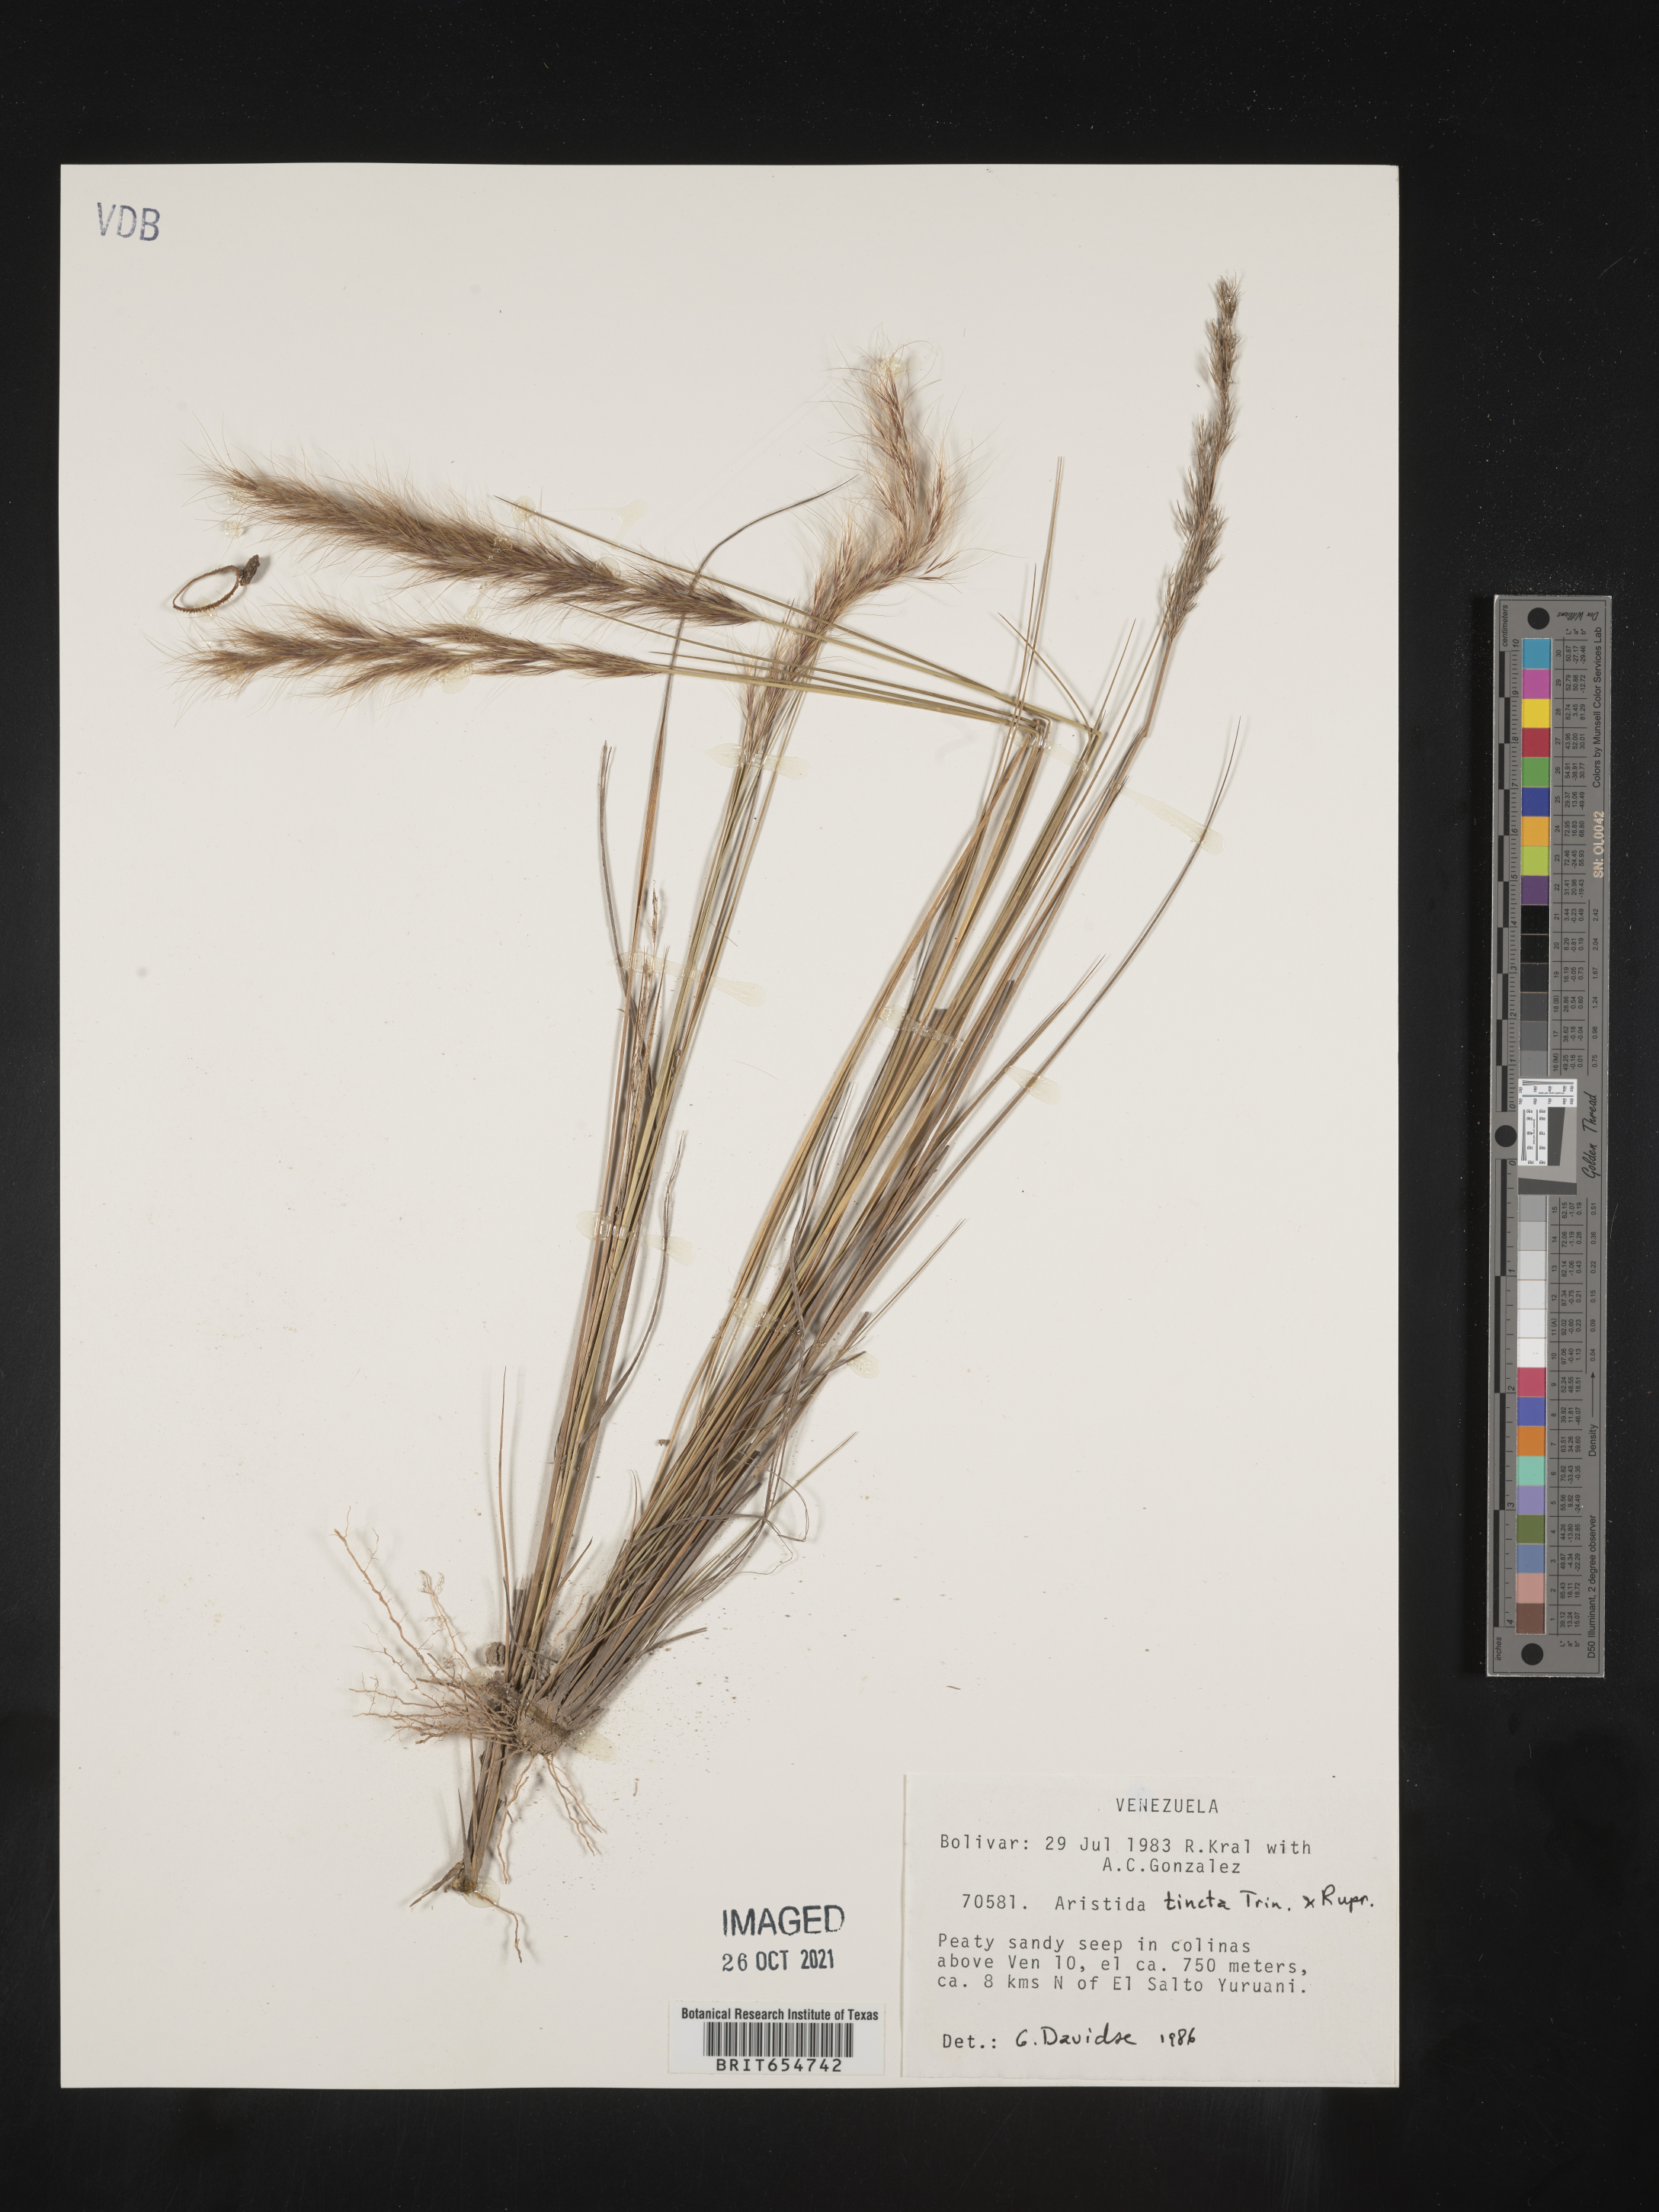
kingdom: Plantae
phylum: Tracheophyta
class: Liliopsida
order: Poales
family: Poaceae
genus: Aristida
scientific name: Aristida
